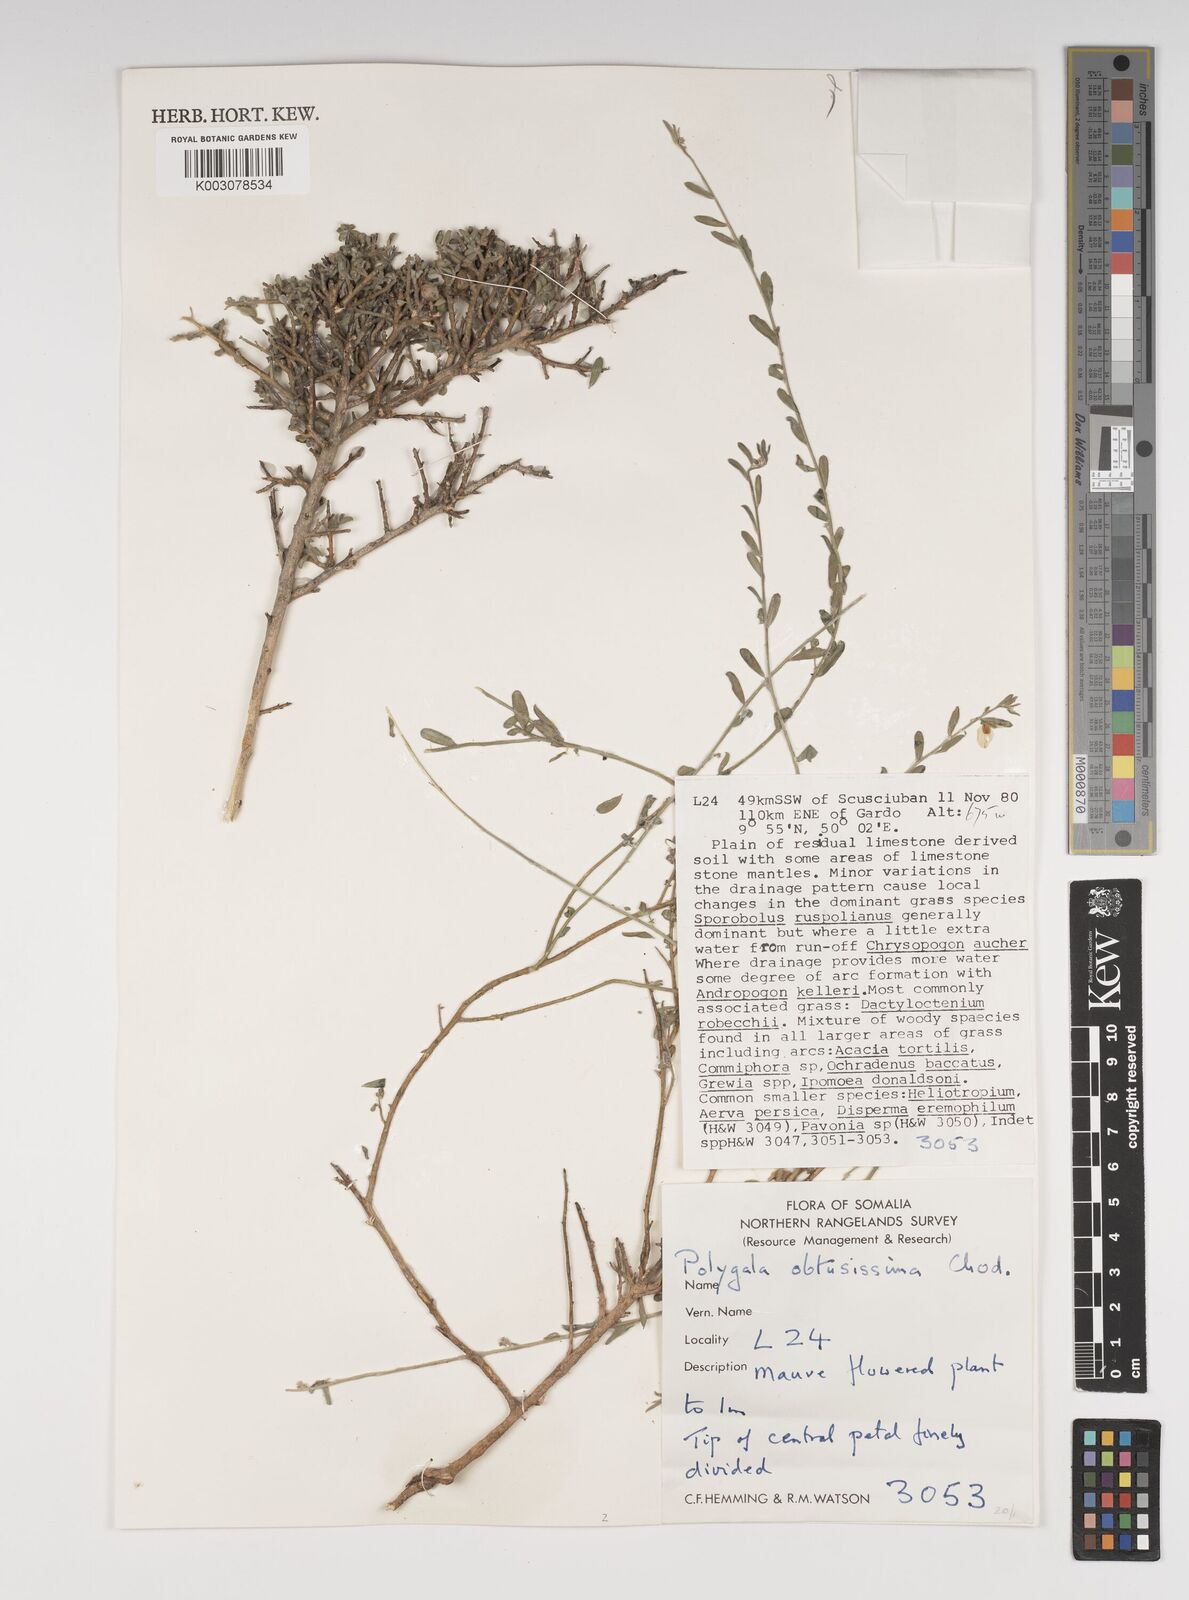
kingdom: Plantae
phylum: Tracheophyta
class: Magnoliopsida
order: Fabales
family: Polygalaceae
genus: Polygala
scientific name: Polygala senensis
